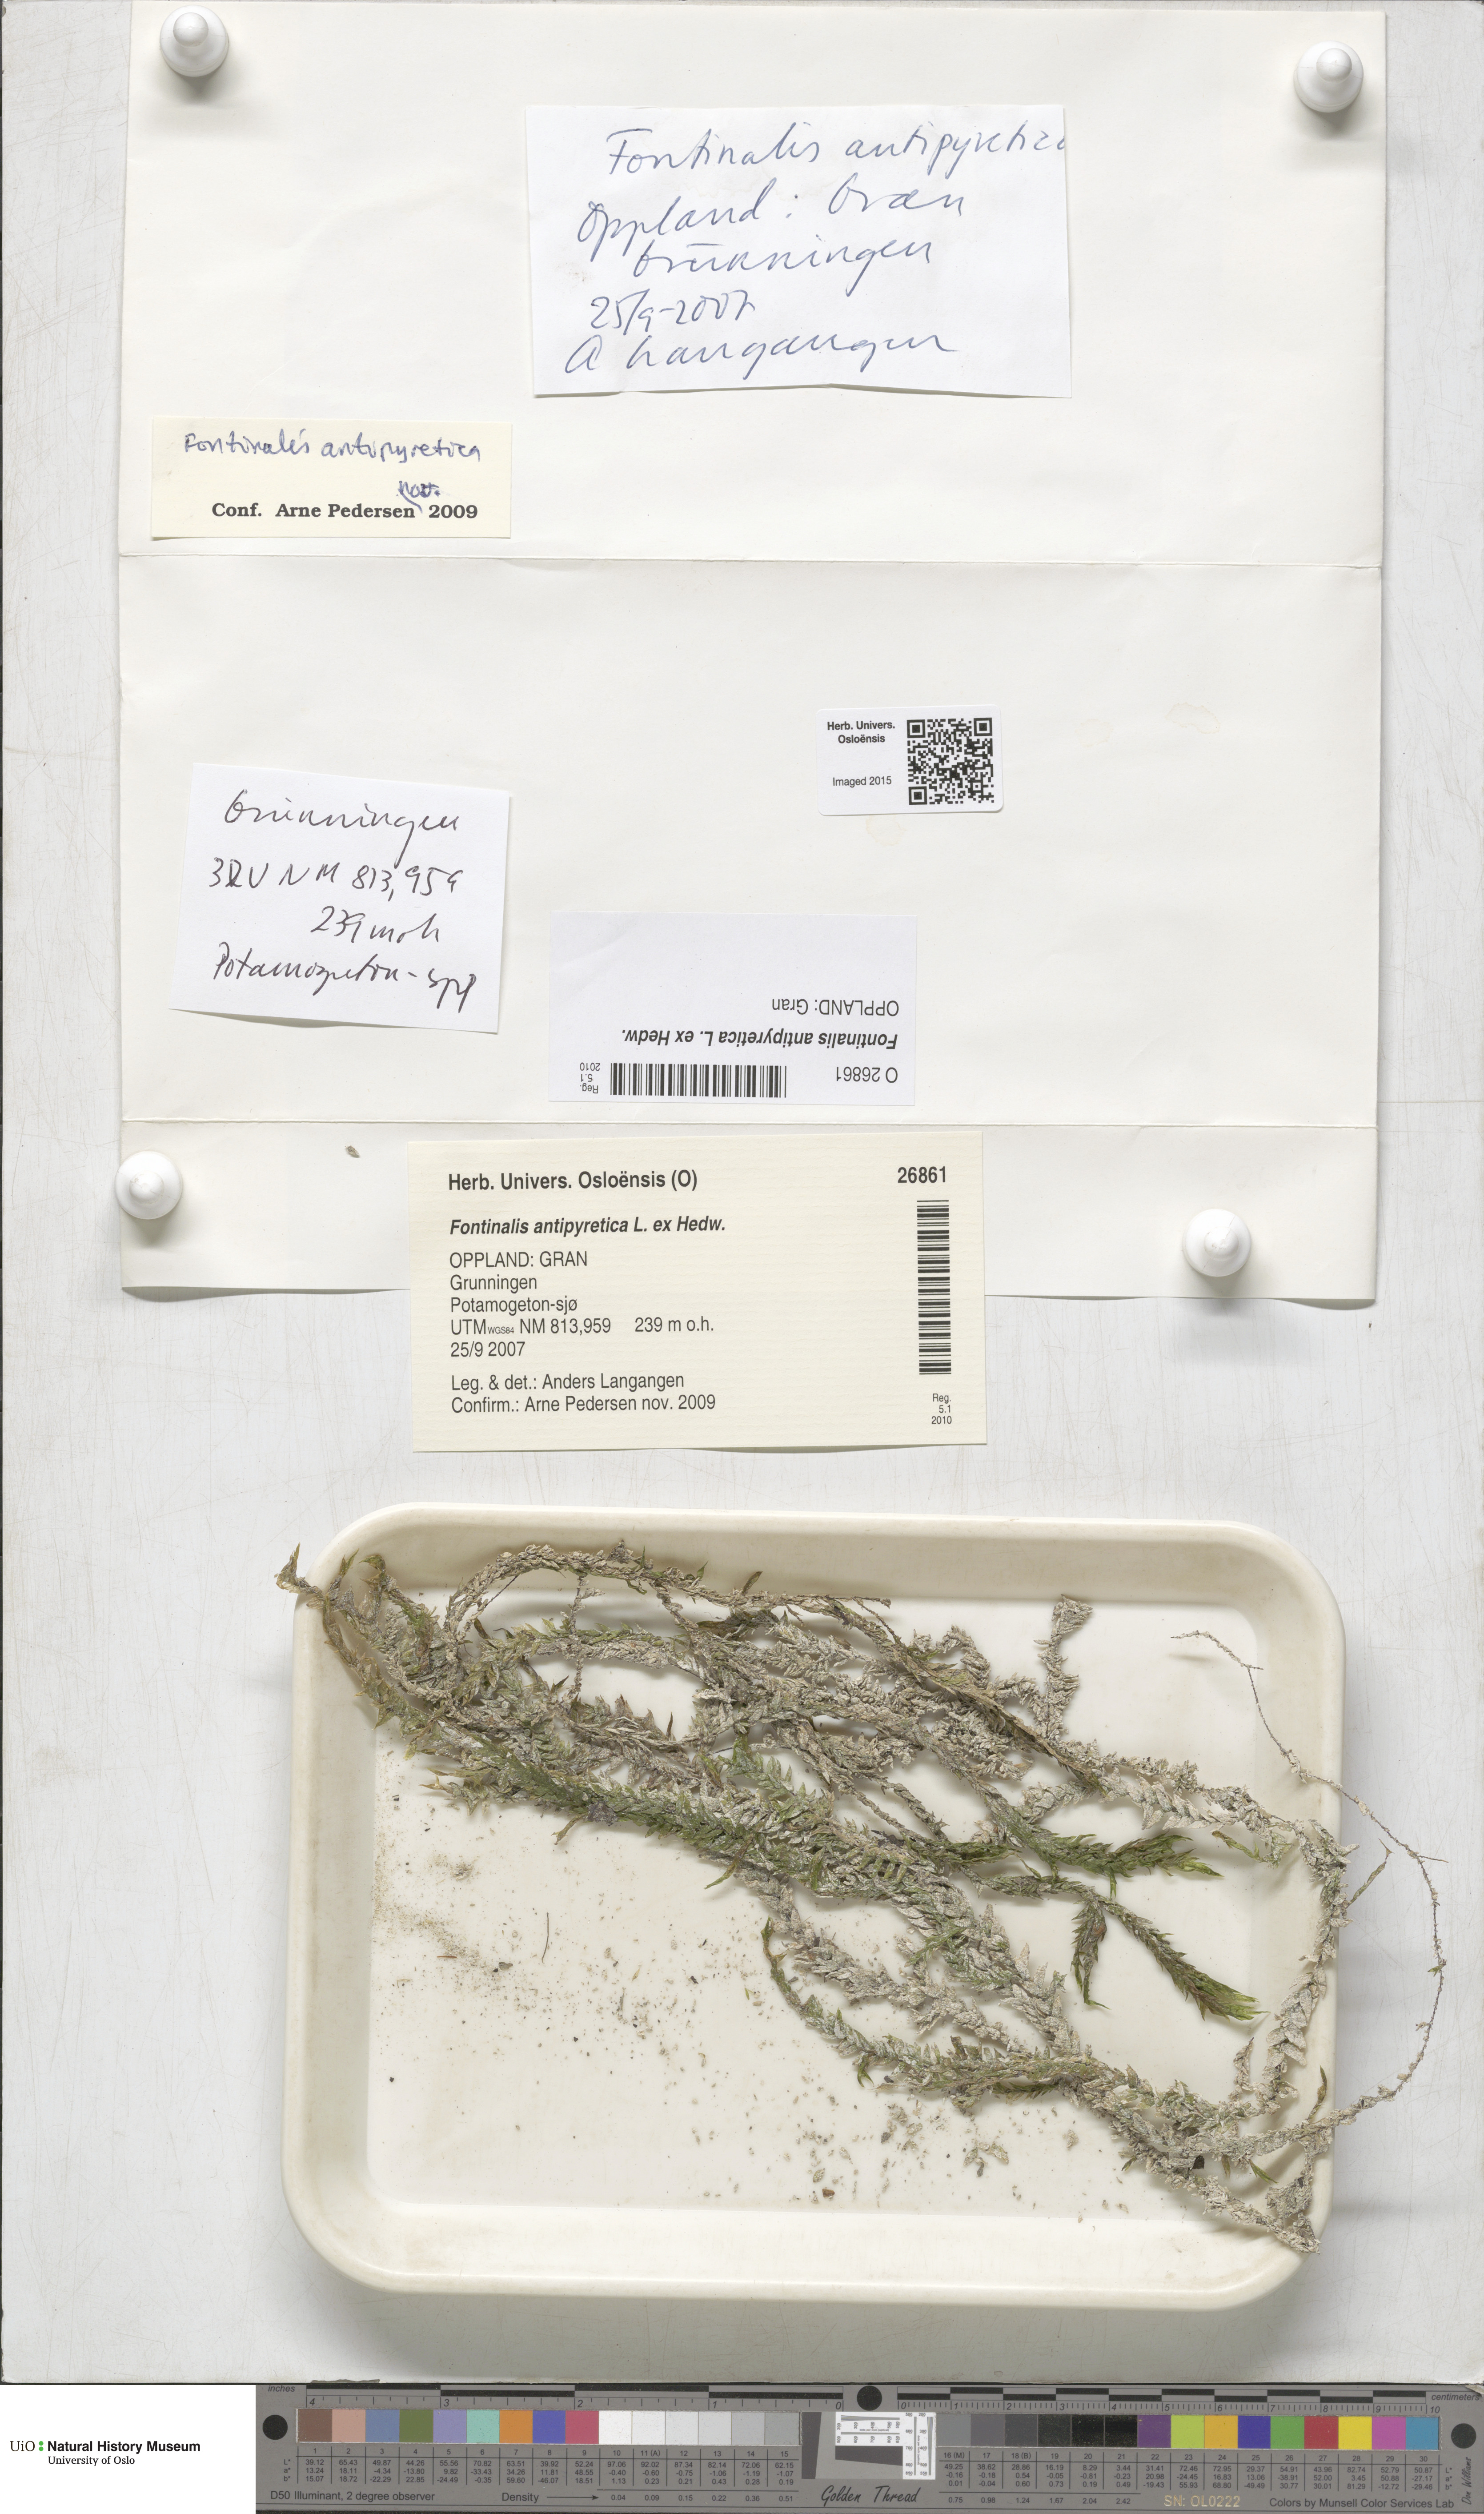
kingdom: Plantae
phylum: Bryophyta
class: Bryopsida
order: Hypnales
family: Fontinalaceae
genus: Fontinalis
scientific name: Fontinalis antipyretica
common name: Greater water-moss
